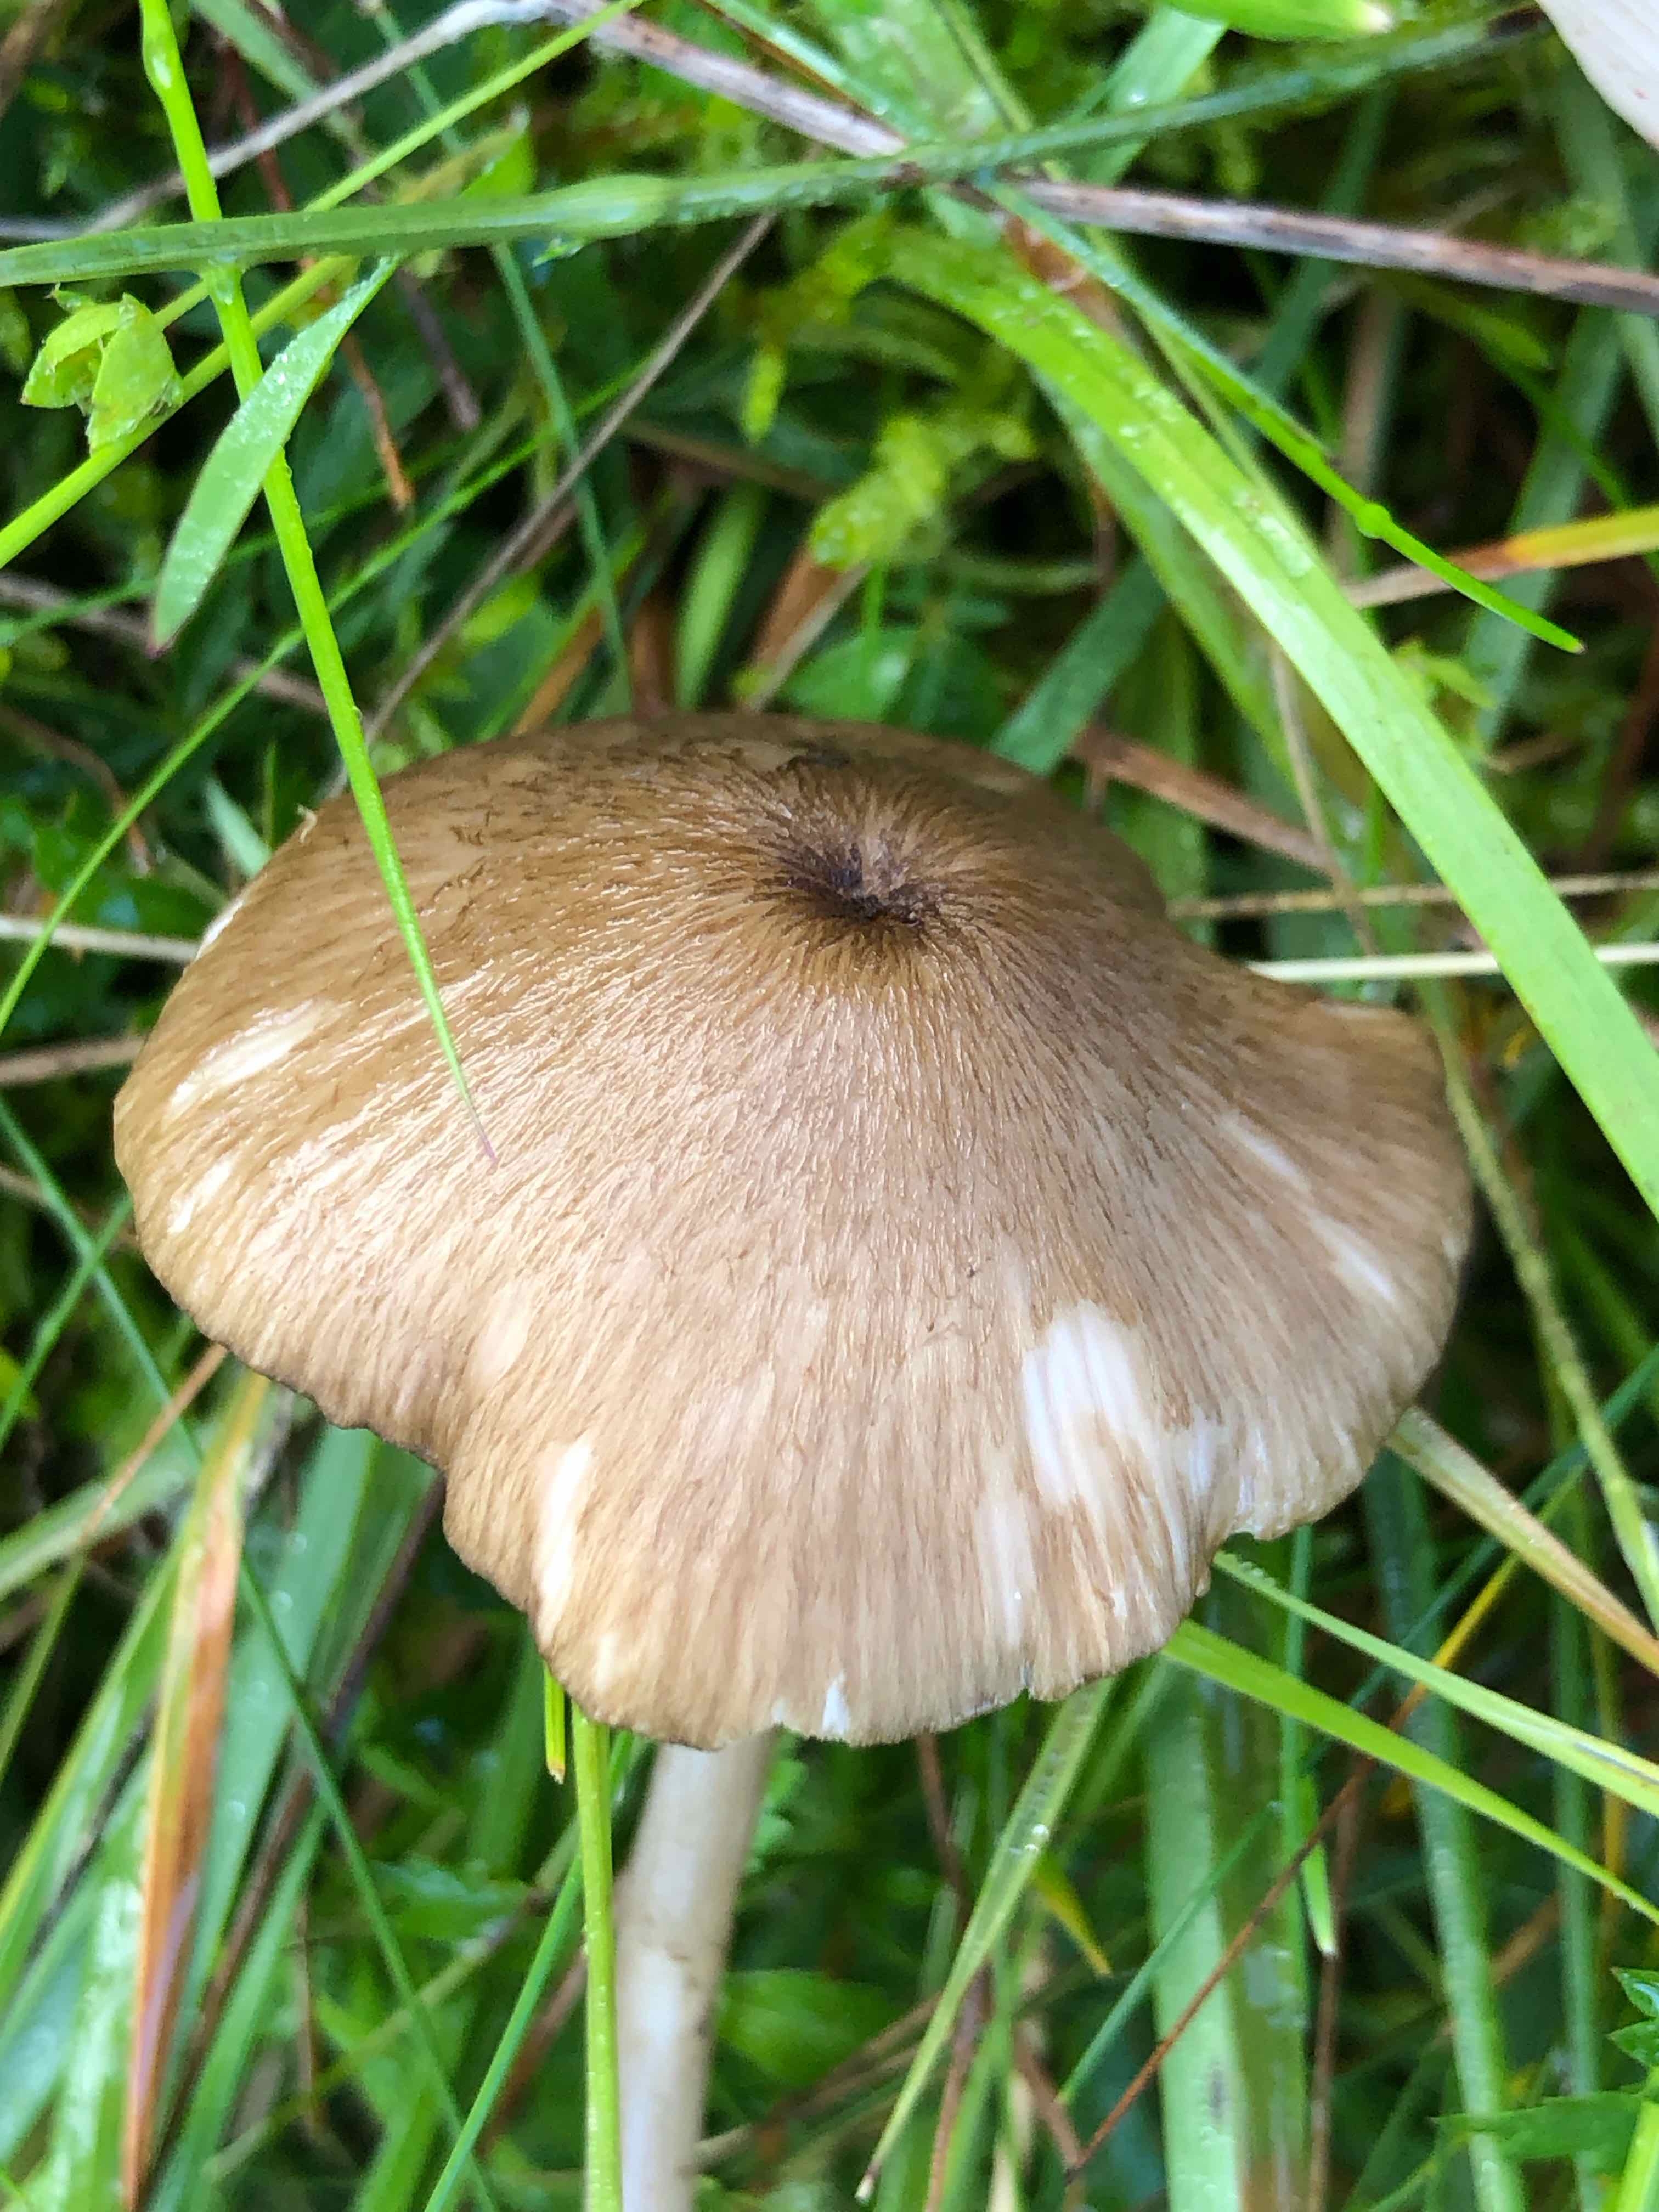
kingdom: Fungi
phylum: Basidiomycota
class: Agaricomycetes
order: Agaricales
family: Entolomataceae
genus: Entoloma
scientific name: Entoloma
